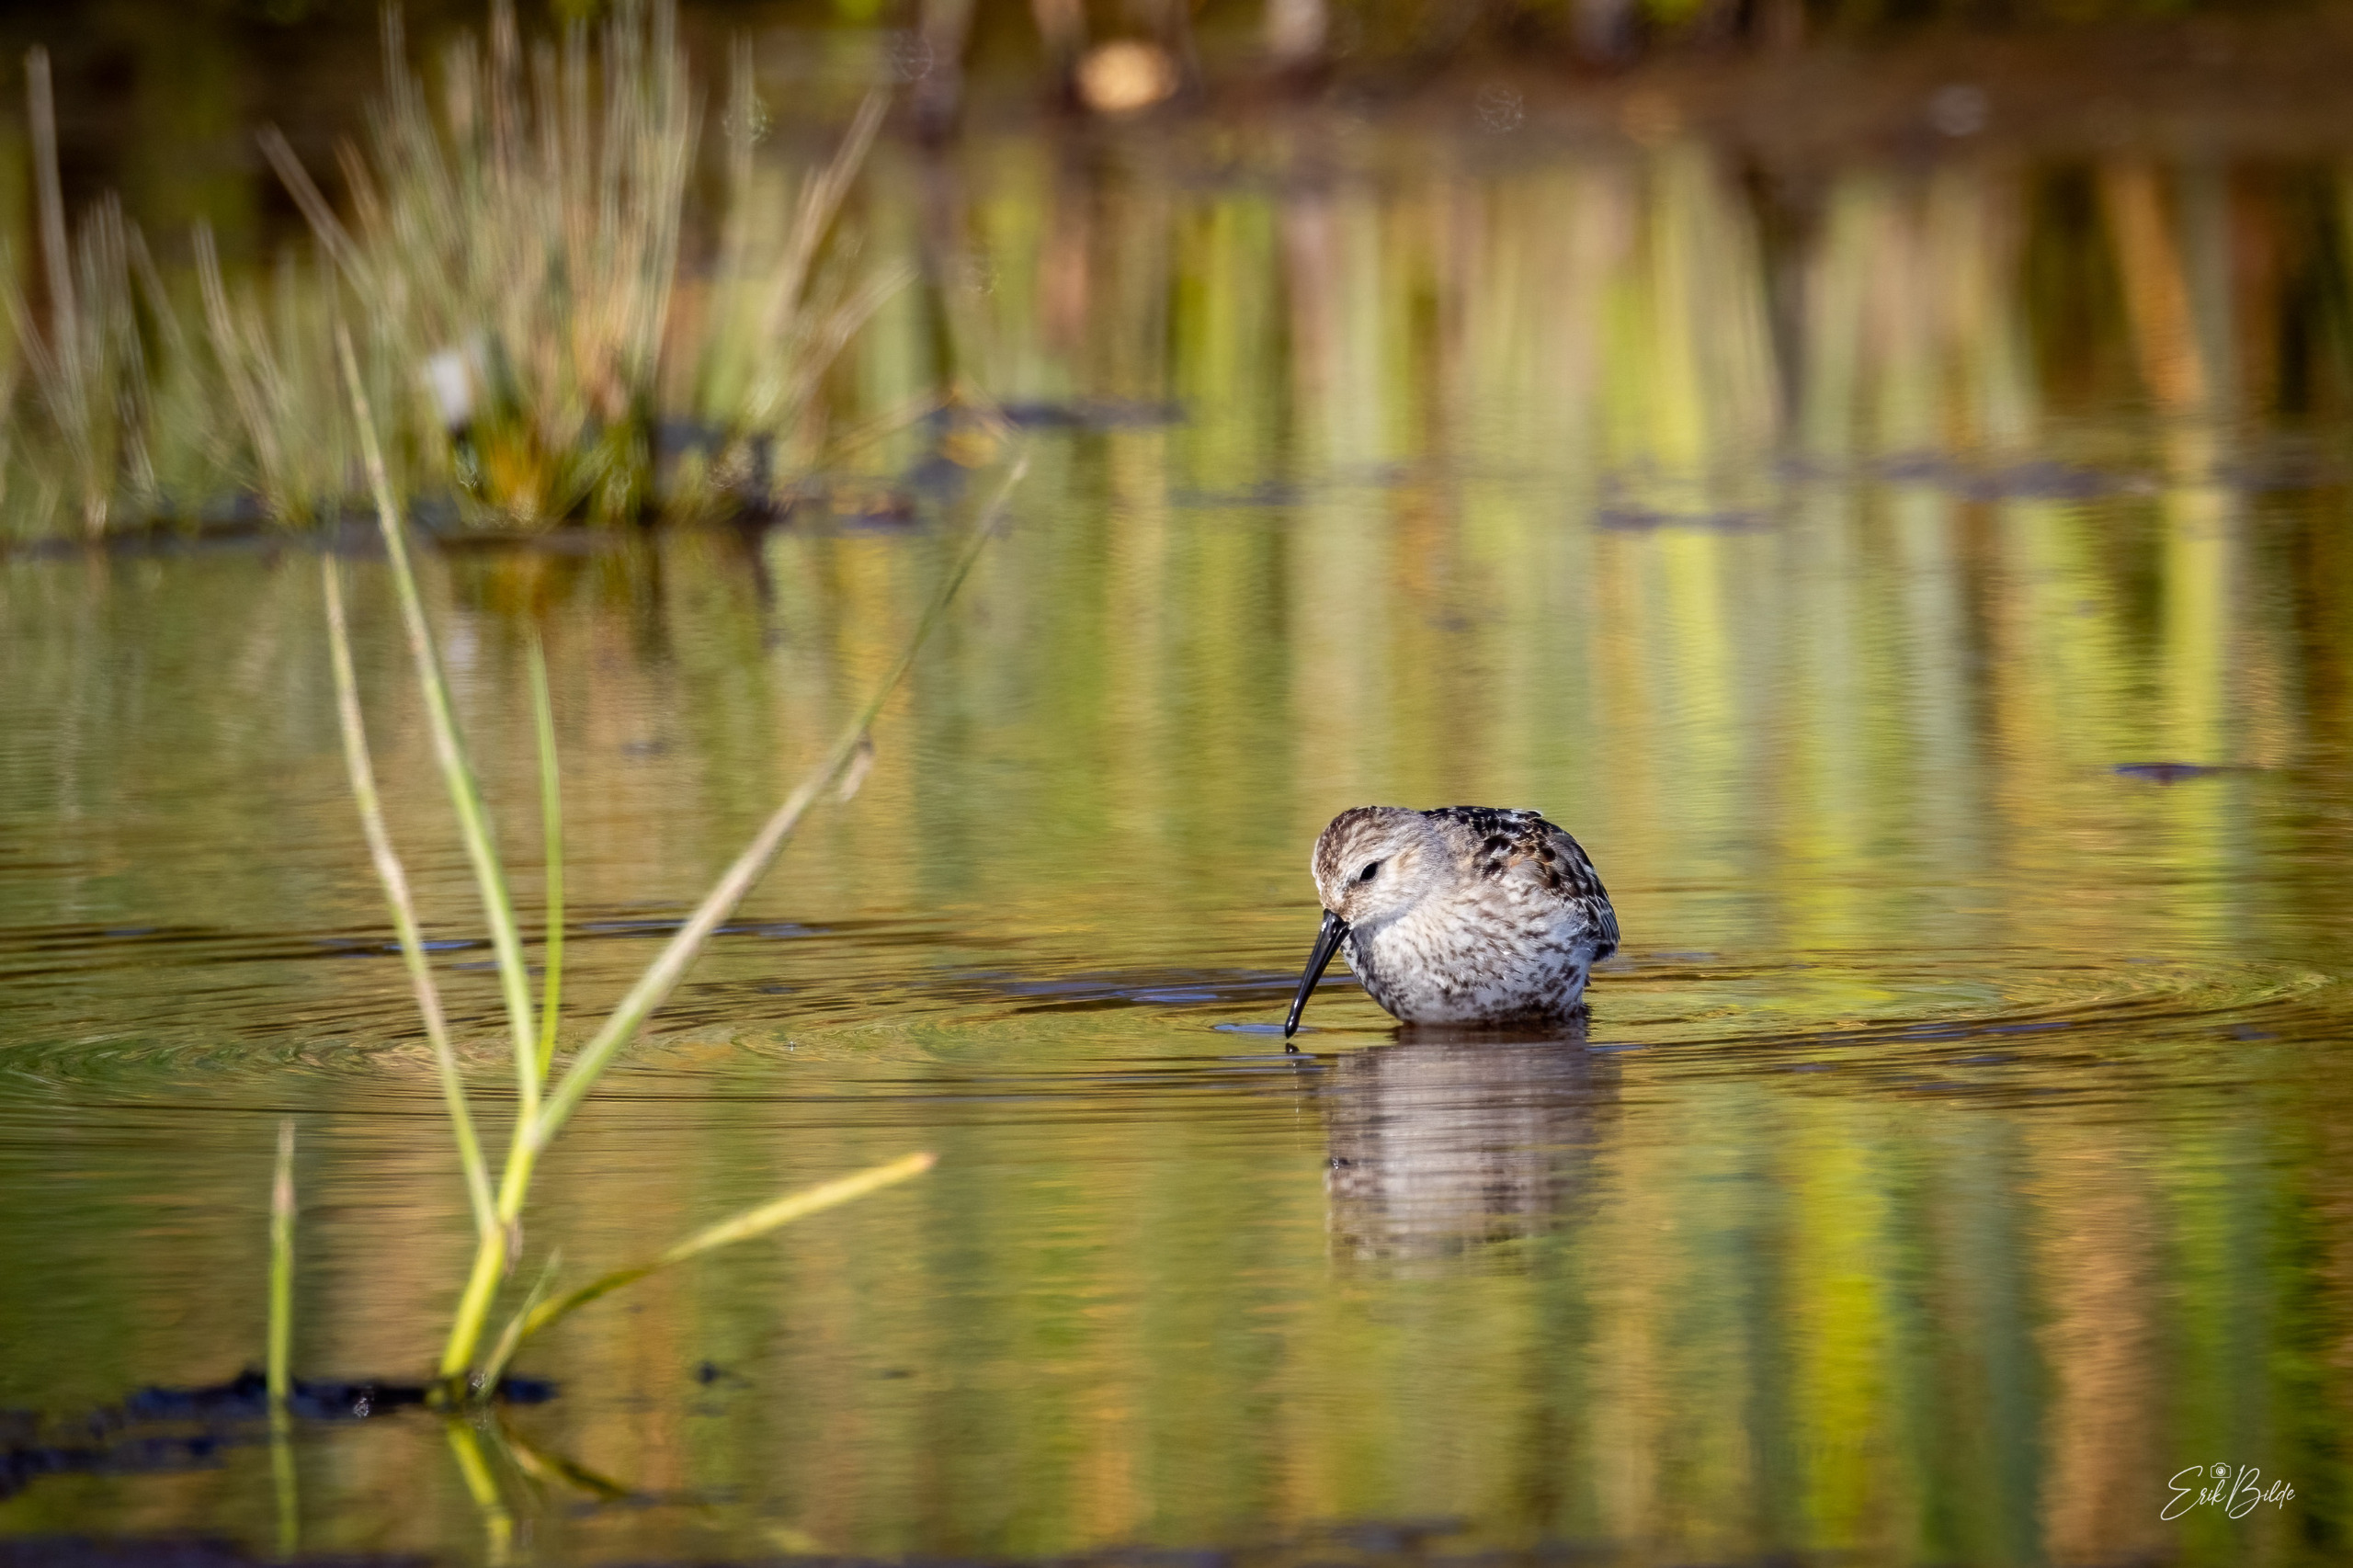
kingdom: Animalia
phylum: Chordata
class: Aves
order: Charadriiformes
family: Scolopacidae
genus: Calidris
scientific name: Calidris alpina
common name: Almindelig ryle
